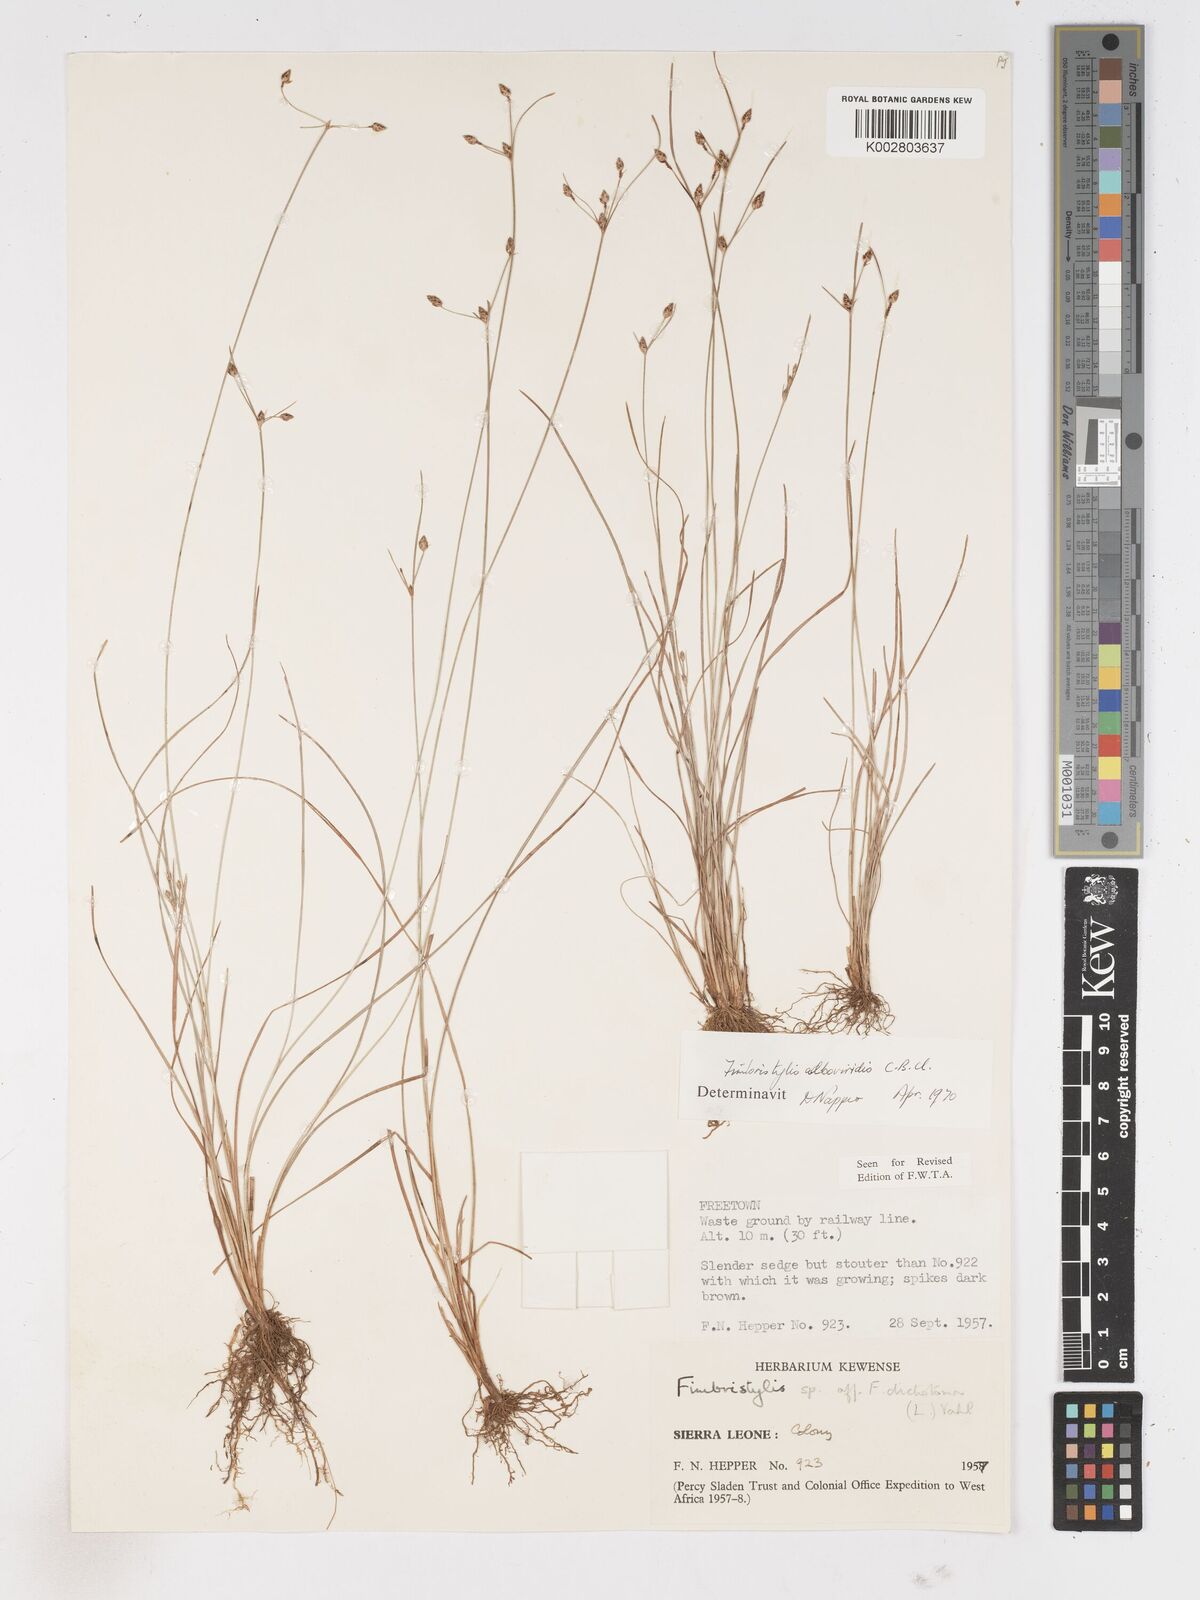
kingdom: Plantae
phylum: Tracheophyta
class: Liliopsida
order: Poales
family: Cyperaceae
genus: Fimbristylis
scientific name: Fimbristylis alboviridis
